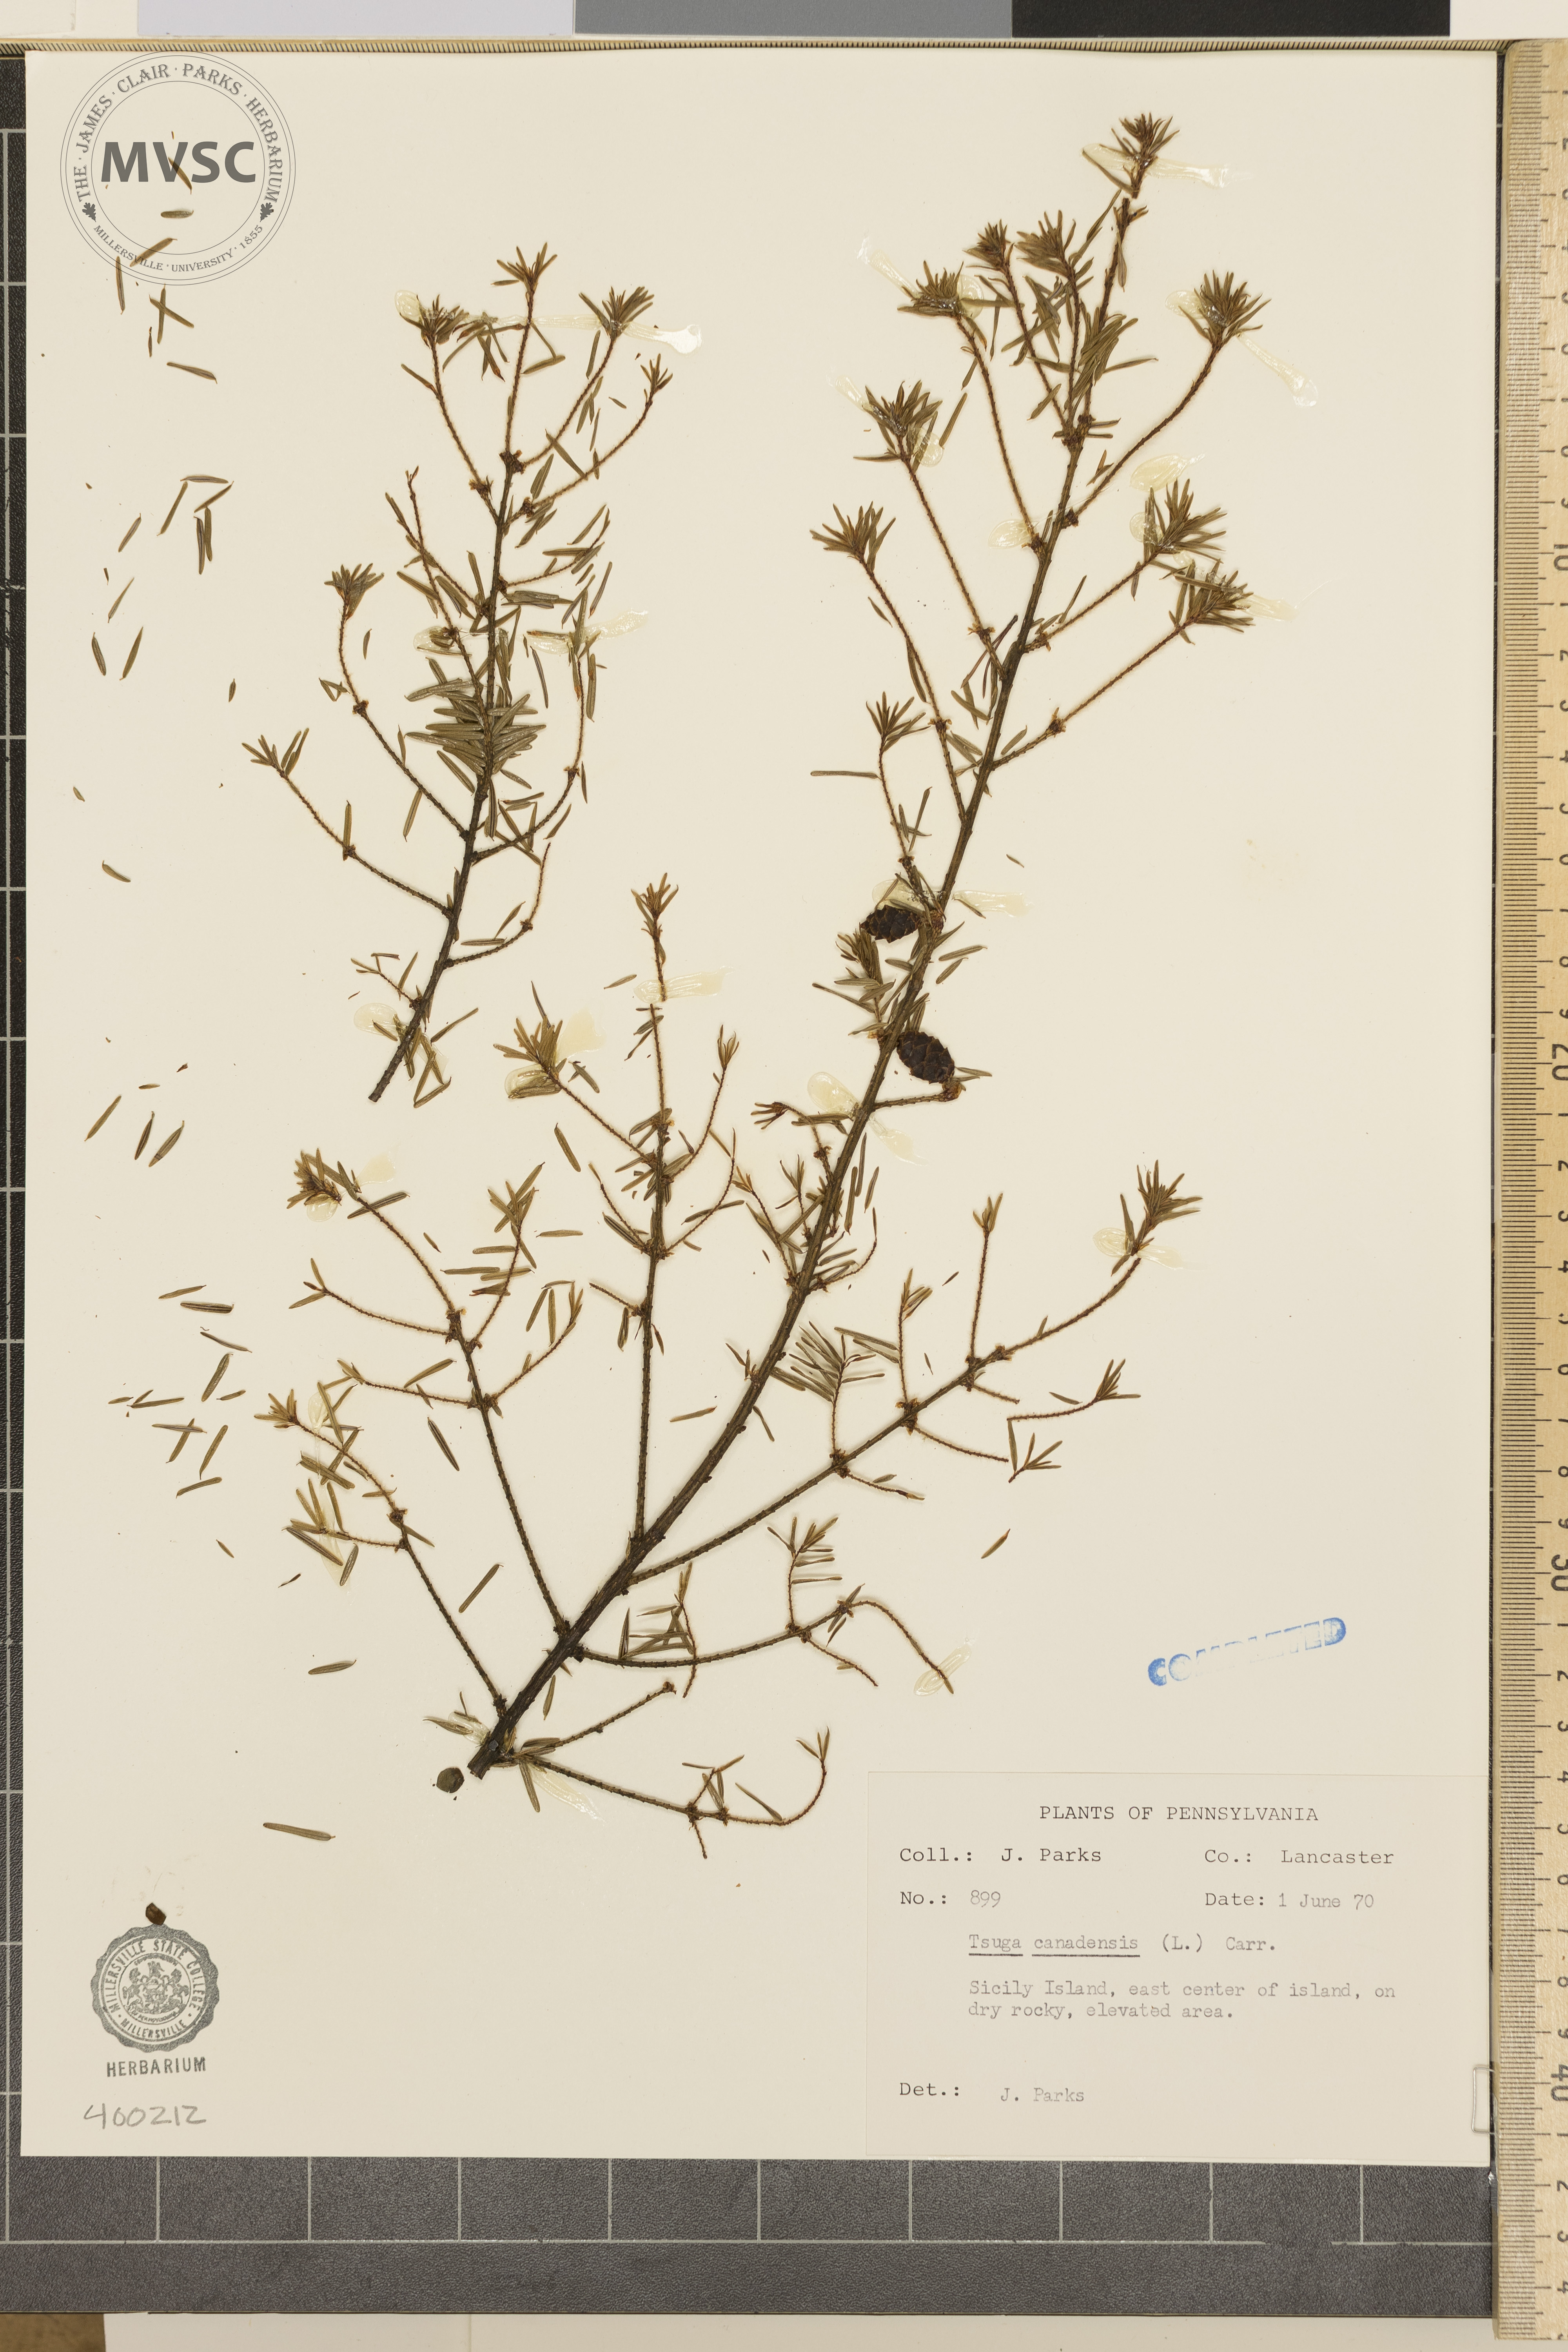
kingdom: Plantae
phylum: Tracheophyta
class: Pinopsida
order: Pinales
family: Pinaceae
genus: Tsuga
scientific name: Tsuga canadensis
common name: Eastern hemlock
